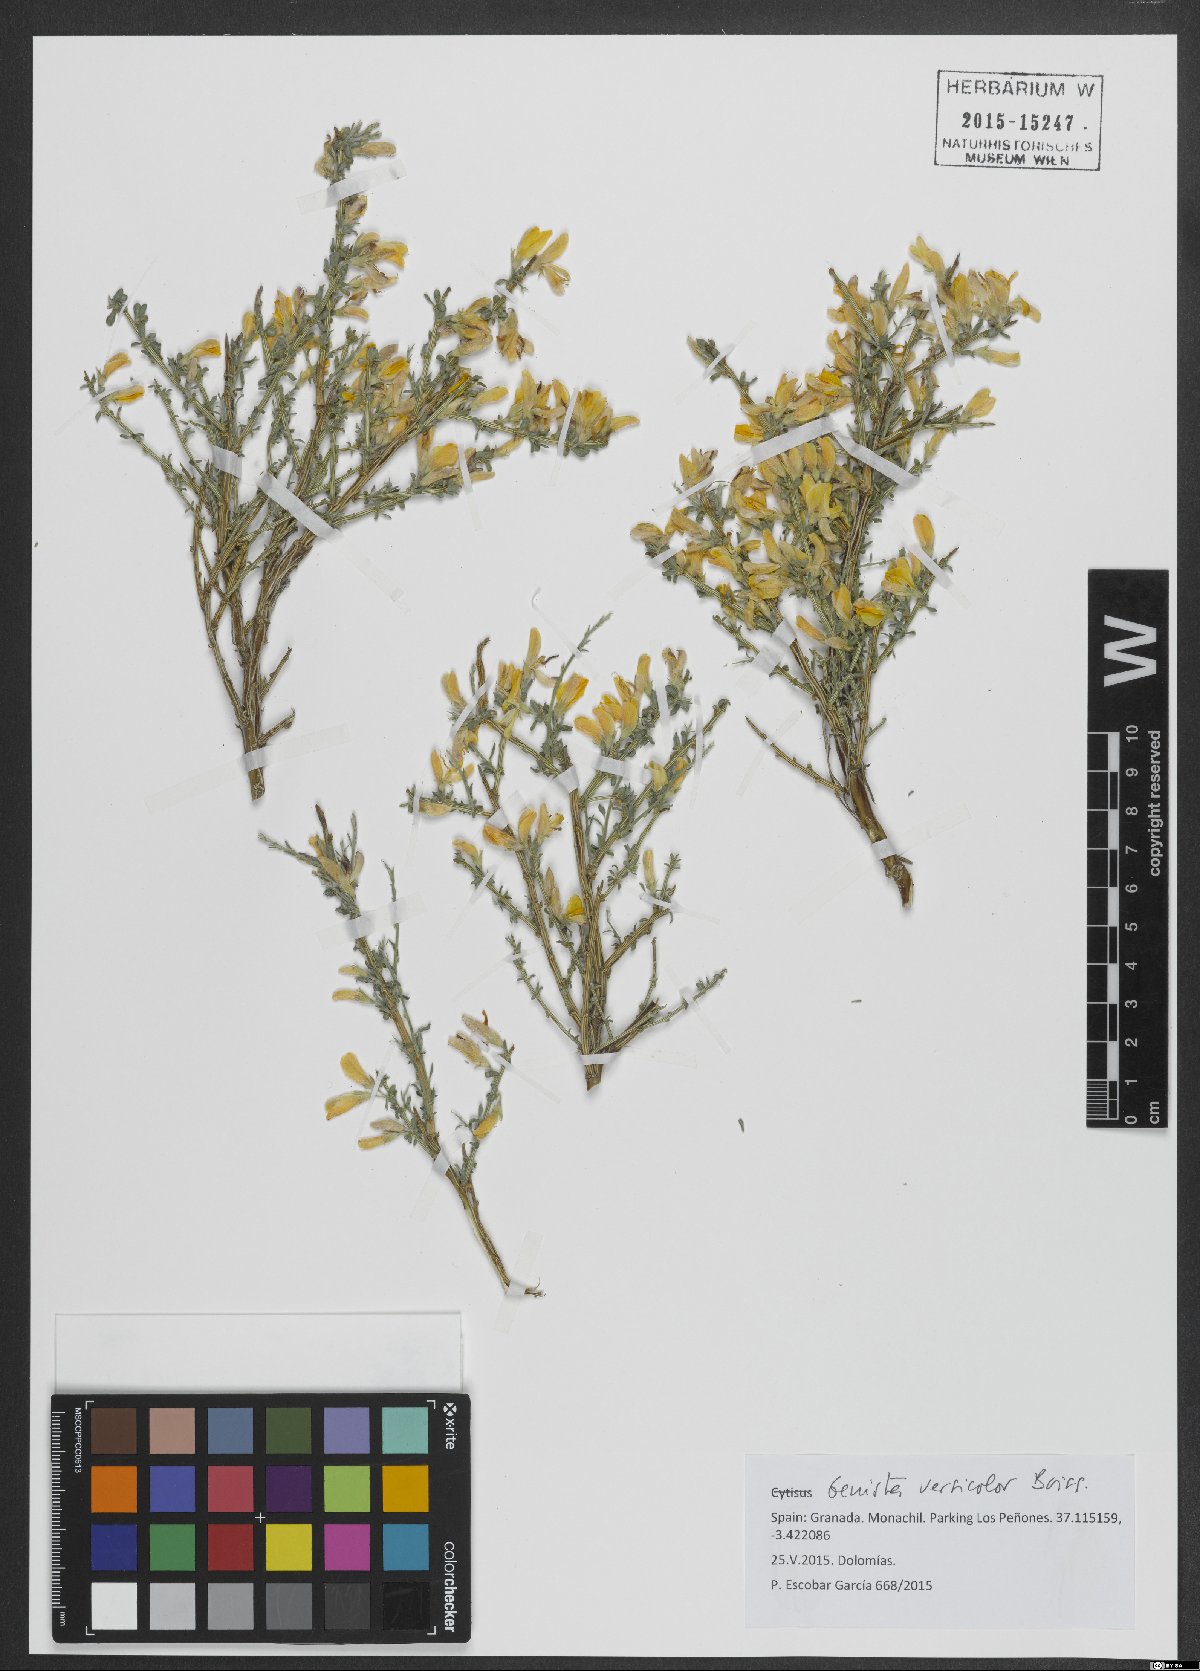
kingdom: Plantae
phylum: Tracheophyta
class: Magnoliopsida
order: Fabales
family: Fabaceae
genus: Genista
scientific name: Genista versicolor
